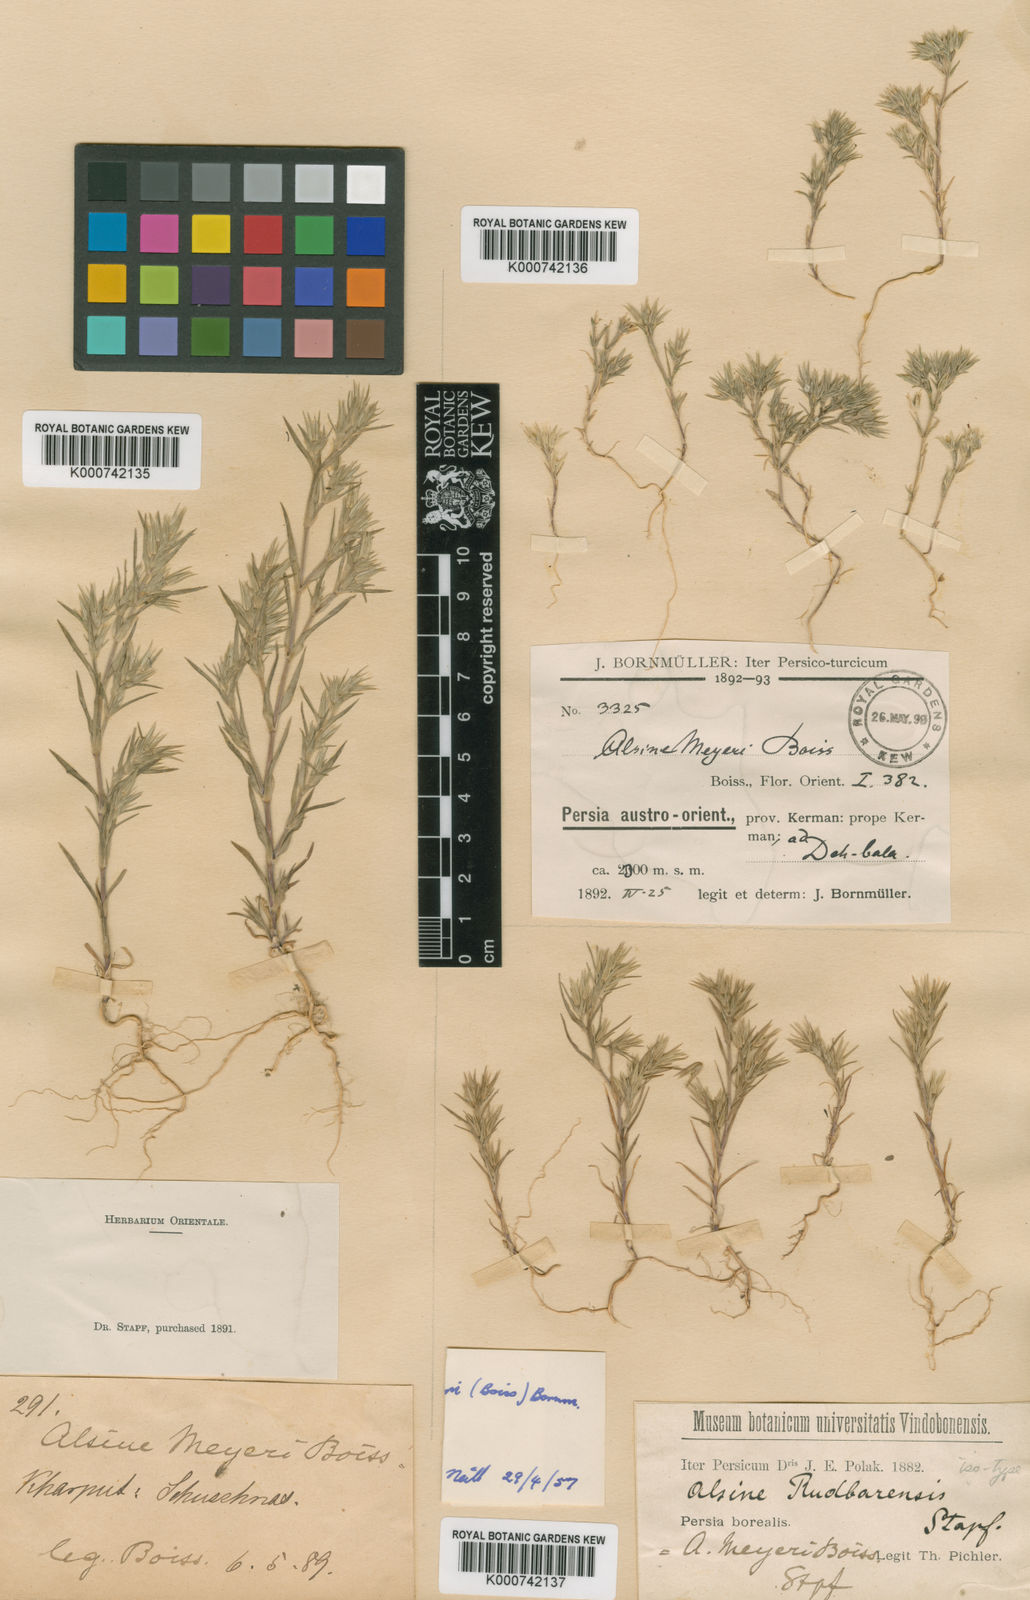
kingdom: Plantae
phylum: Tracheophyta
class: Magnoliopsida
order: Caryophyllales
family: Caryophyllaceae
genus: Minuartia
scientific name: Minuartia meyeri
